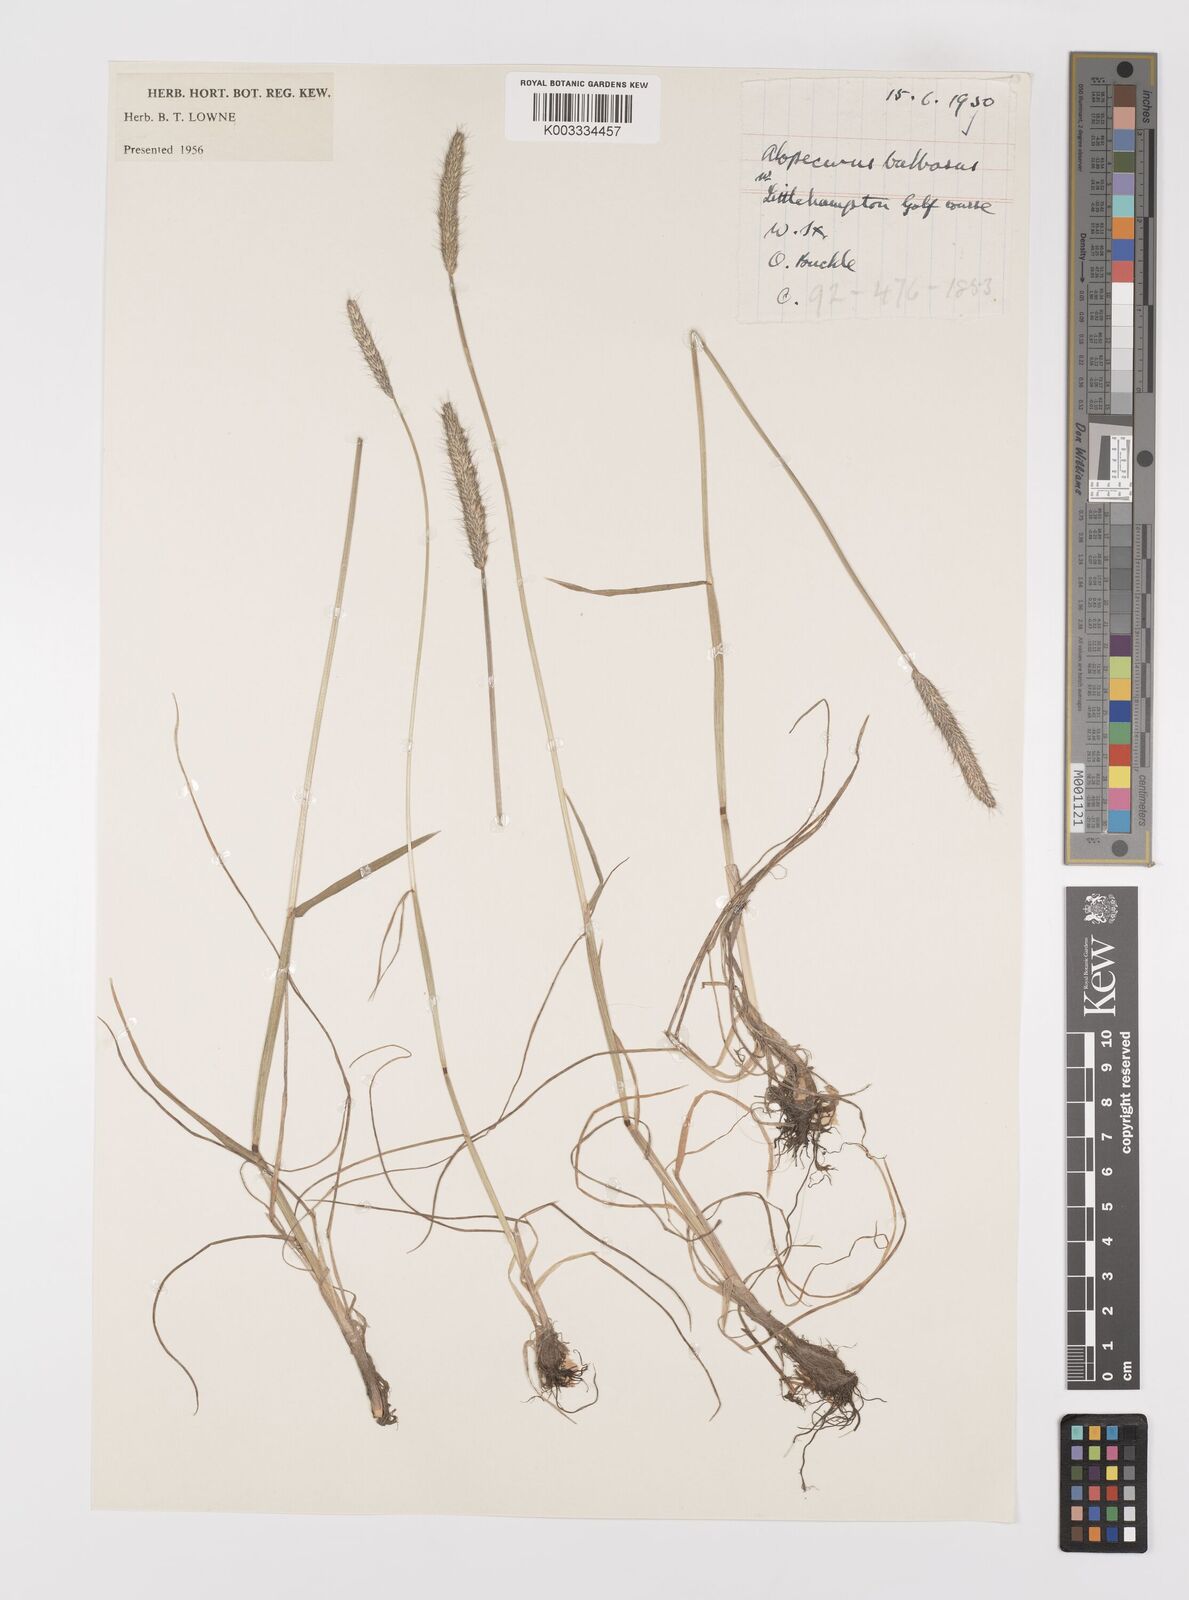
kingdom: Plantae
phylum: Tracheophyta
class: Liliopsida
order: Poales
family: Poaceae
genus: Alopecurus
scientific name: Alopecurus bulbosus
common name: Bulbous foxtail
